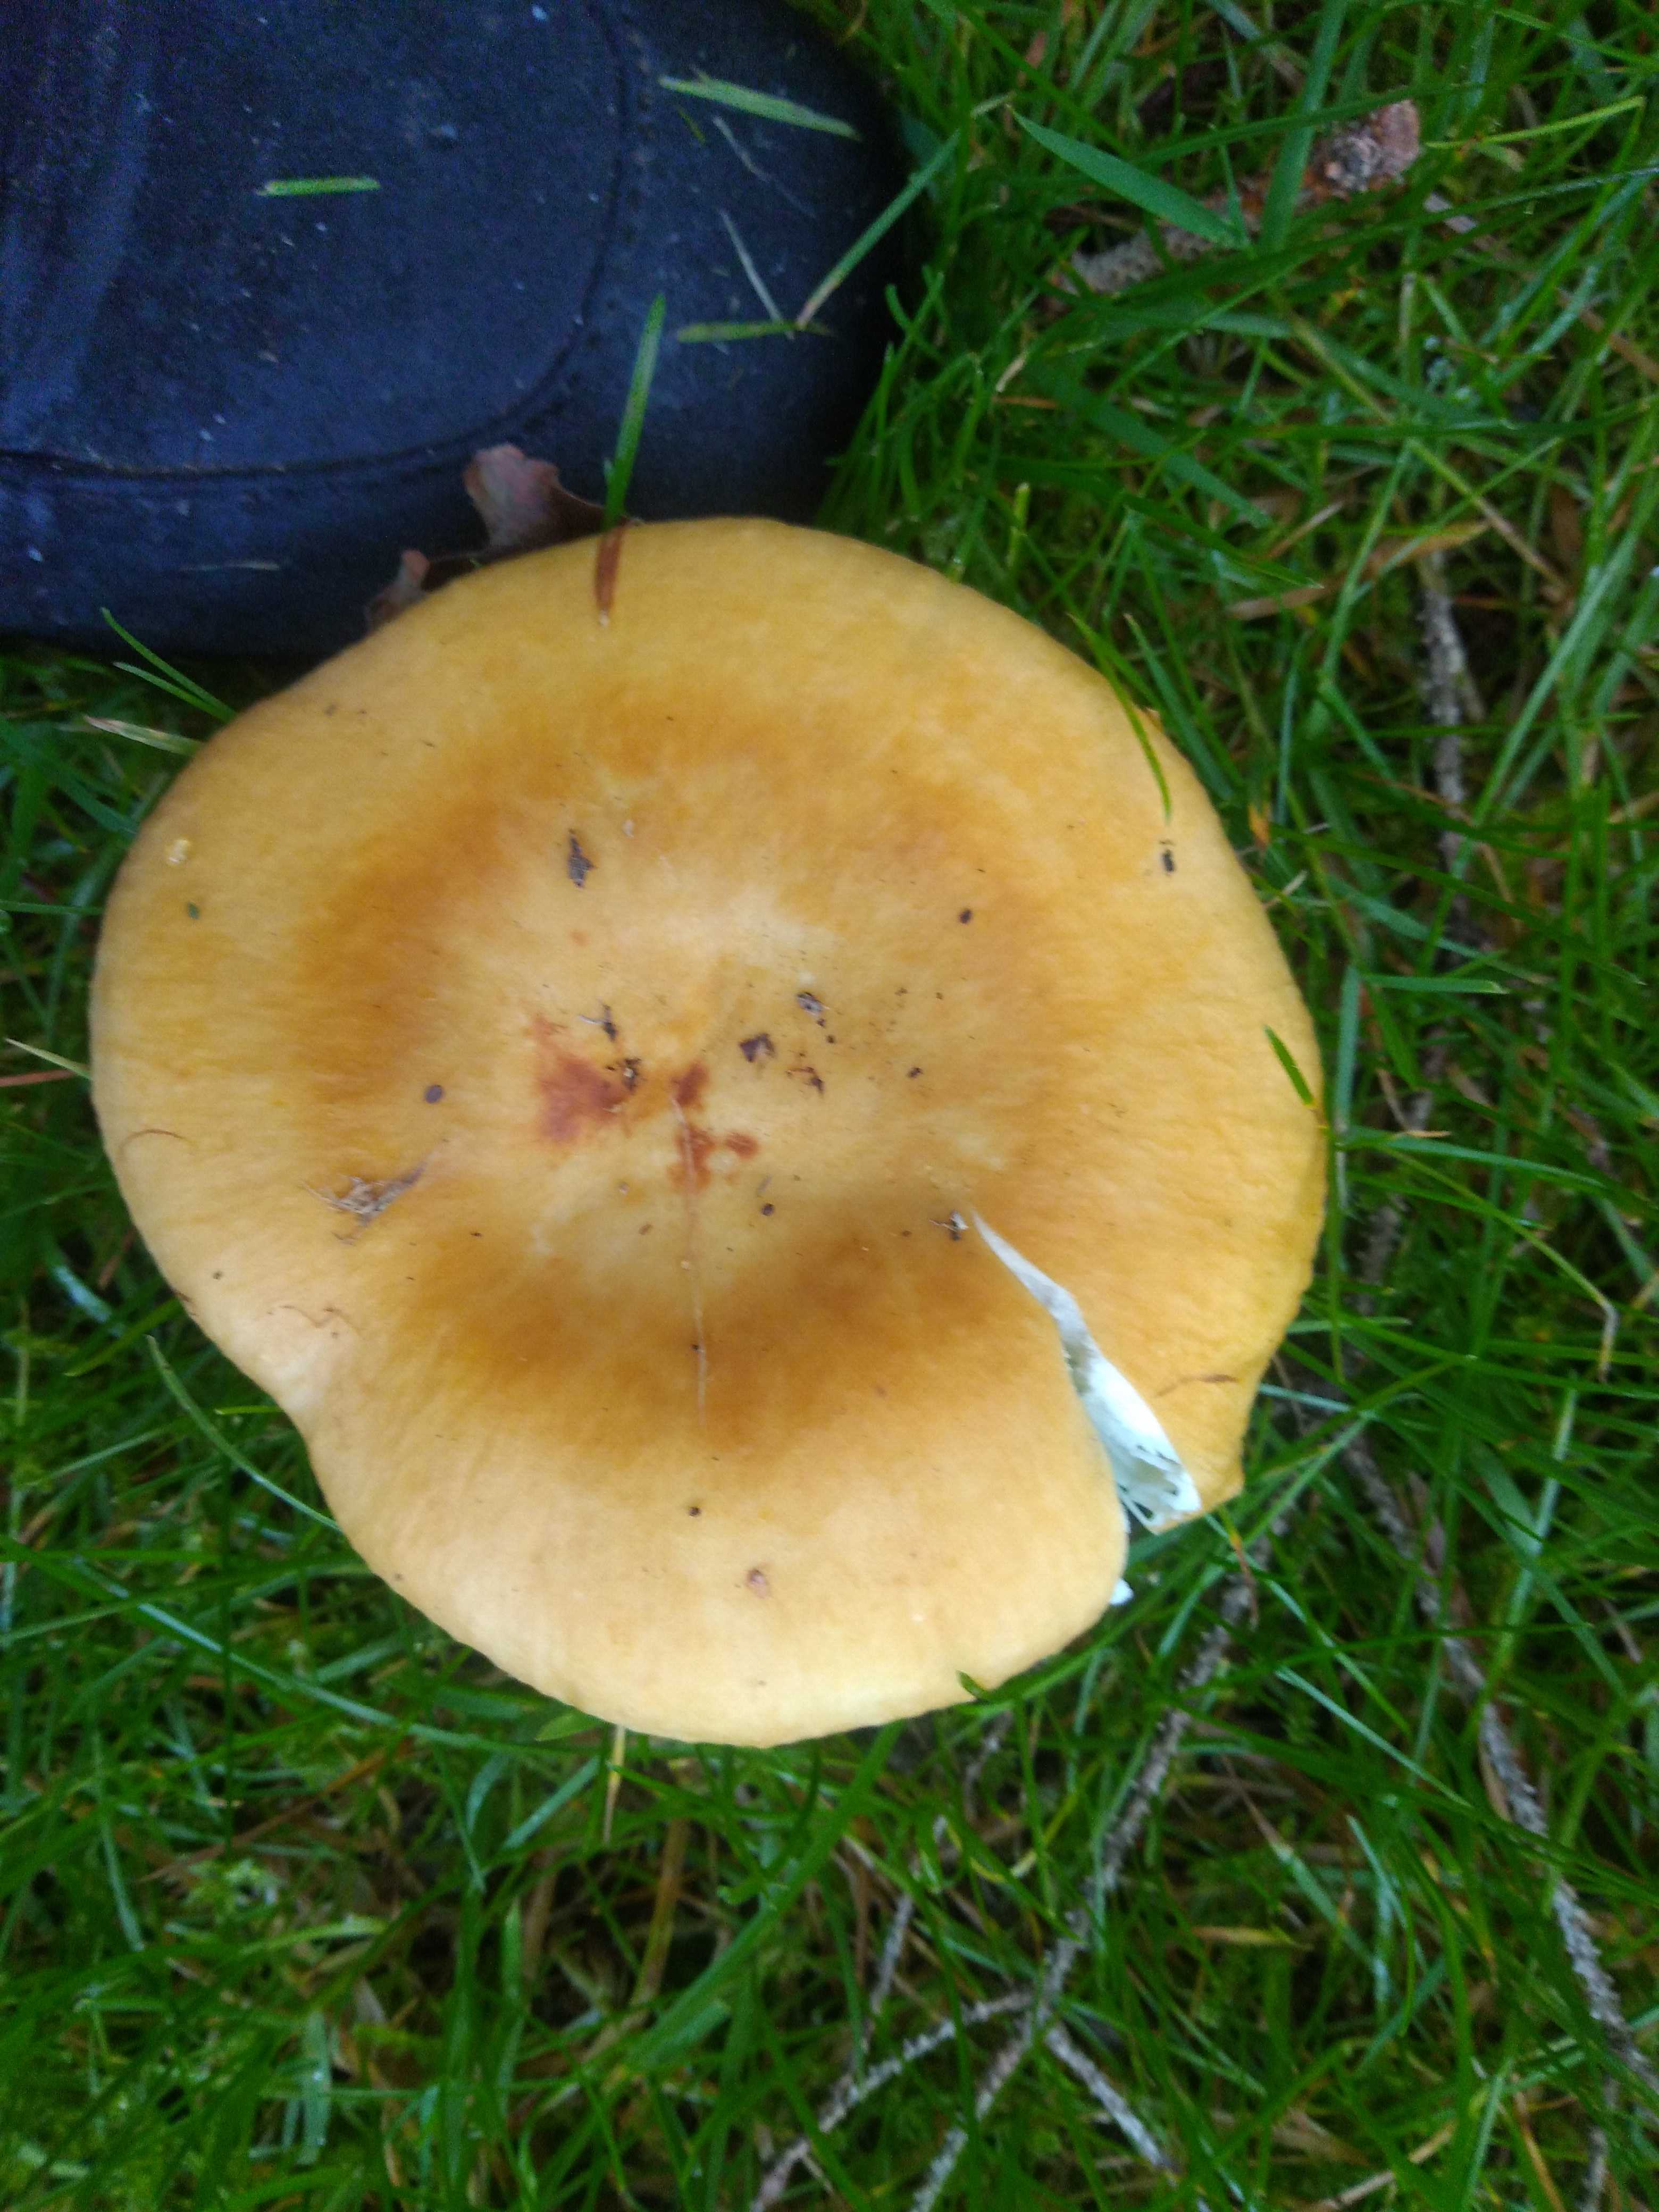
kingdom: Fungi
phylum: Basidiomycota
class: Agaricomycetes
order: Russulales
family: Russulaceae
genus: Russula
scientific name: Russula ochroleuca
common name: okkergul skørhat
